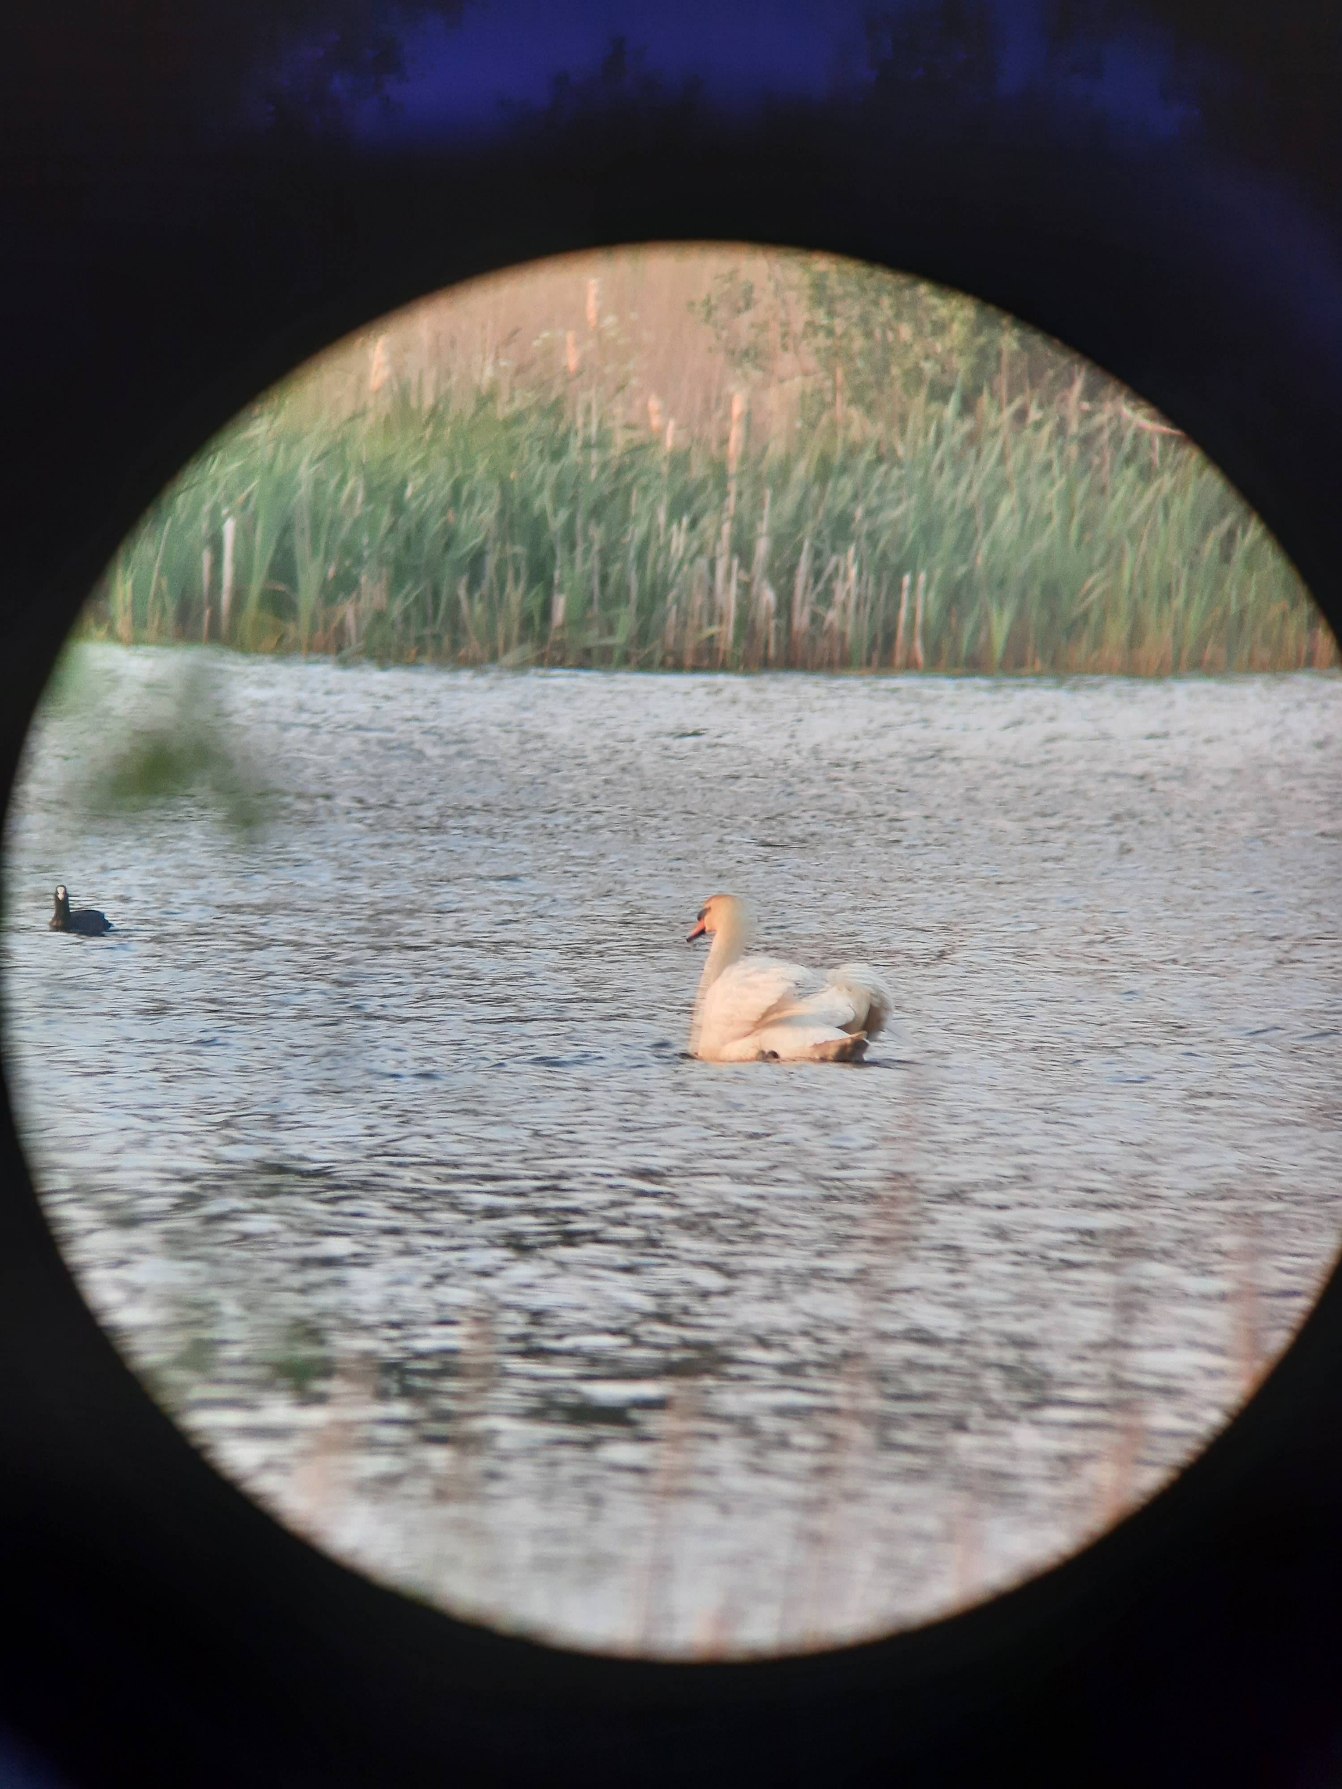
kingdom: Animalia
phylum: Chordata
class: Aves
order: Anseriformes
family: Anatidae
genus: Cygnus
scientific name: Cygnus olor
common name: Knopsvane
